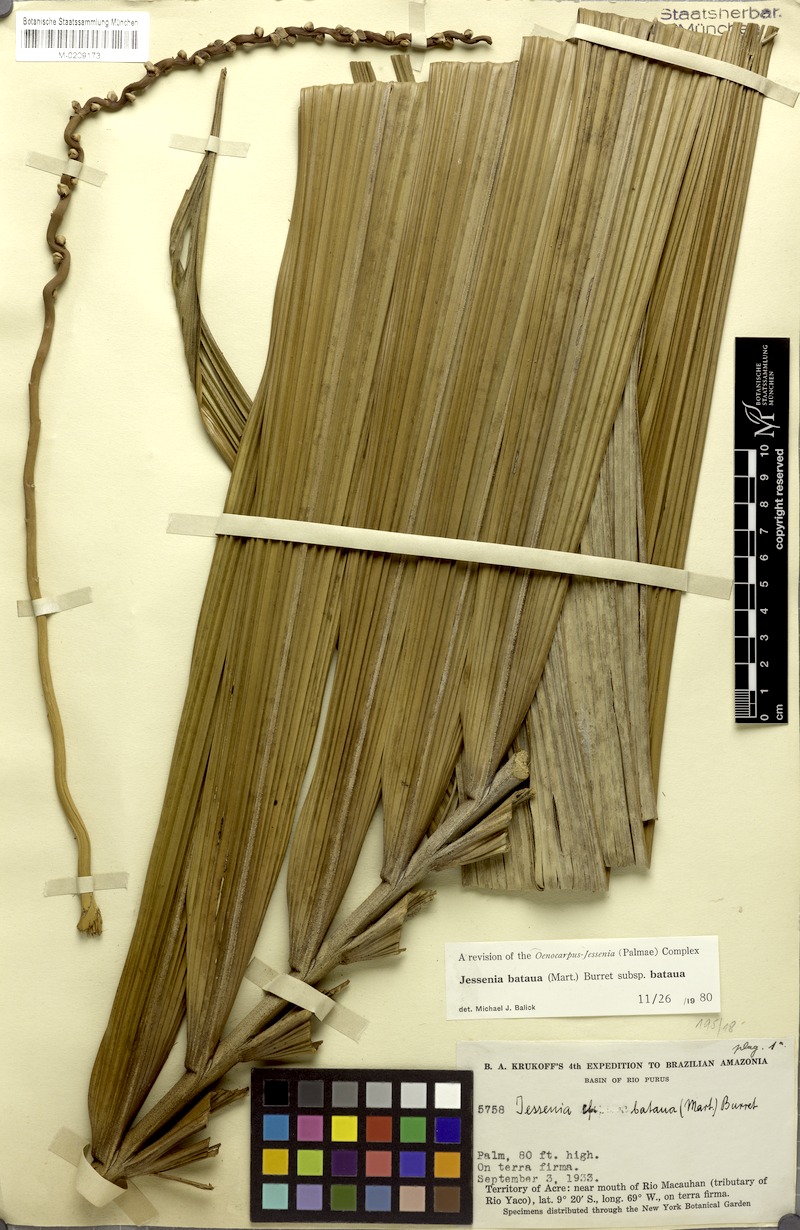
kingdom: Plantae
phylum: Tracheophyta
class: Liliopsida
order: Arecales
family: Arecaceae
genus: Oenocarpus
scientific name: Oenocarpus bataua
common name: Bataua palm
